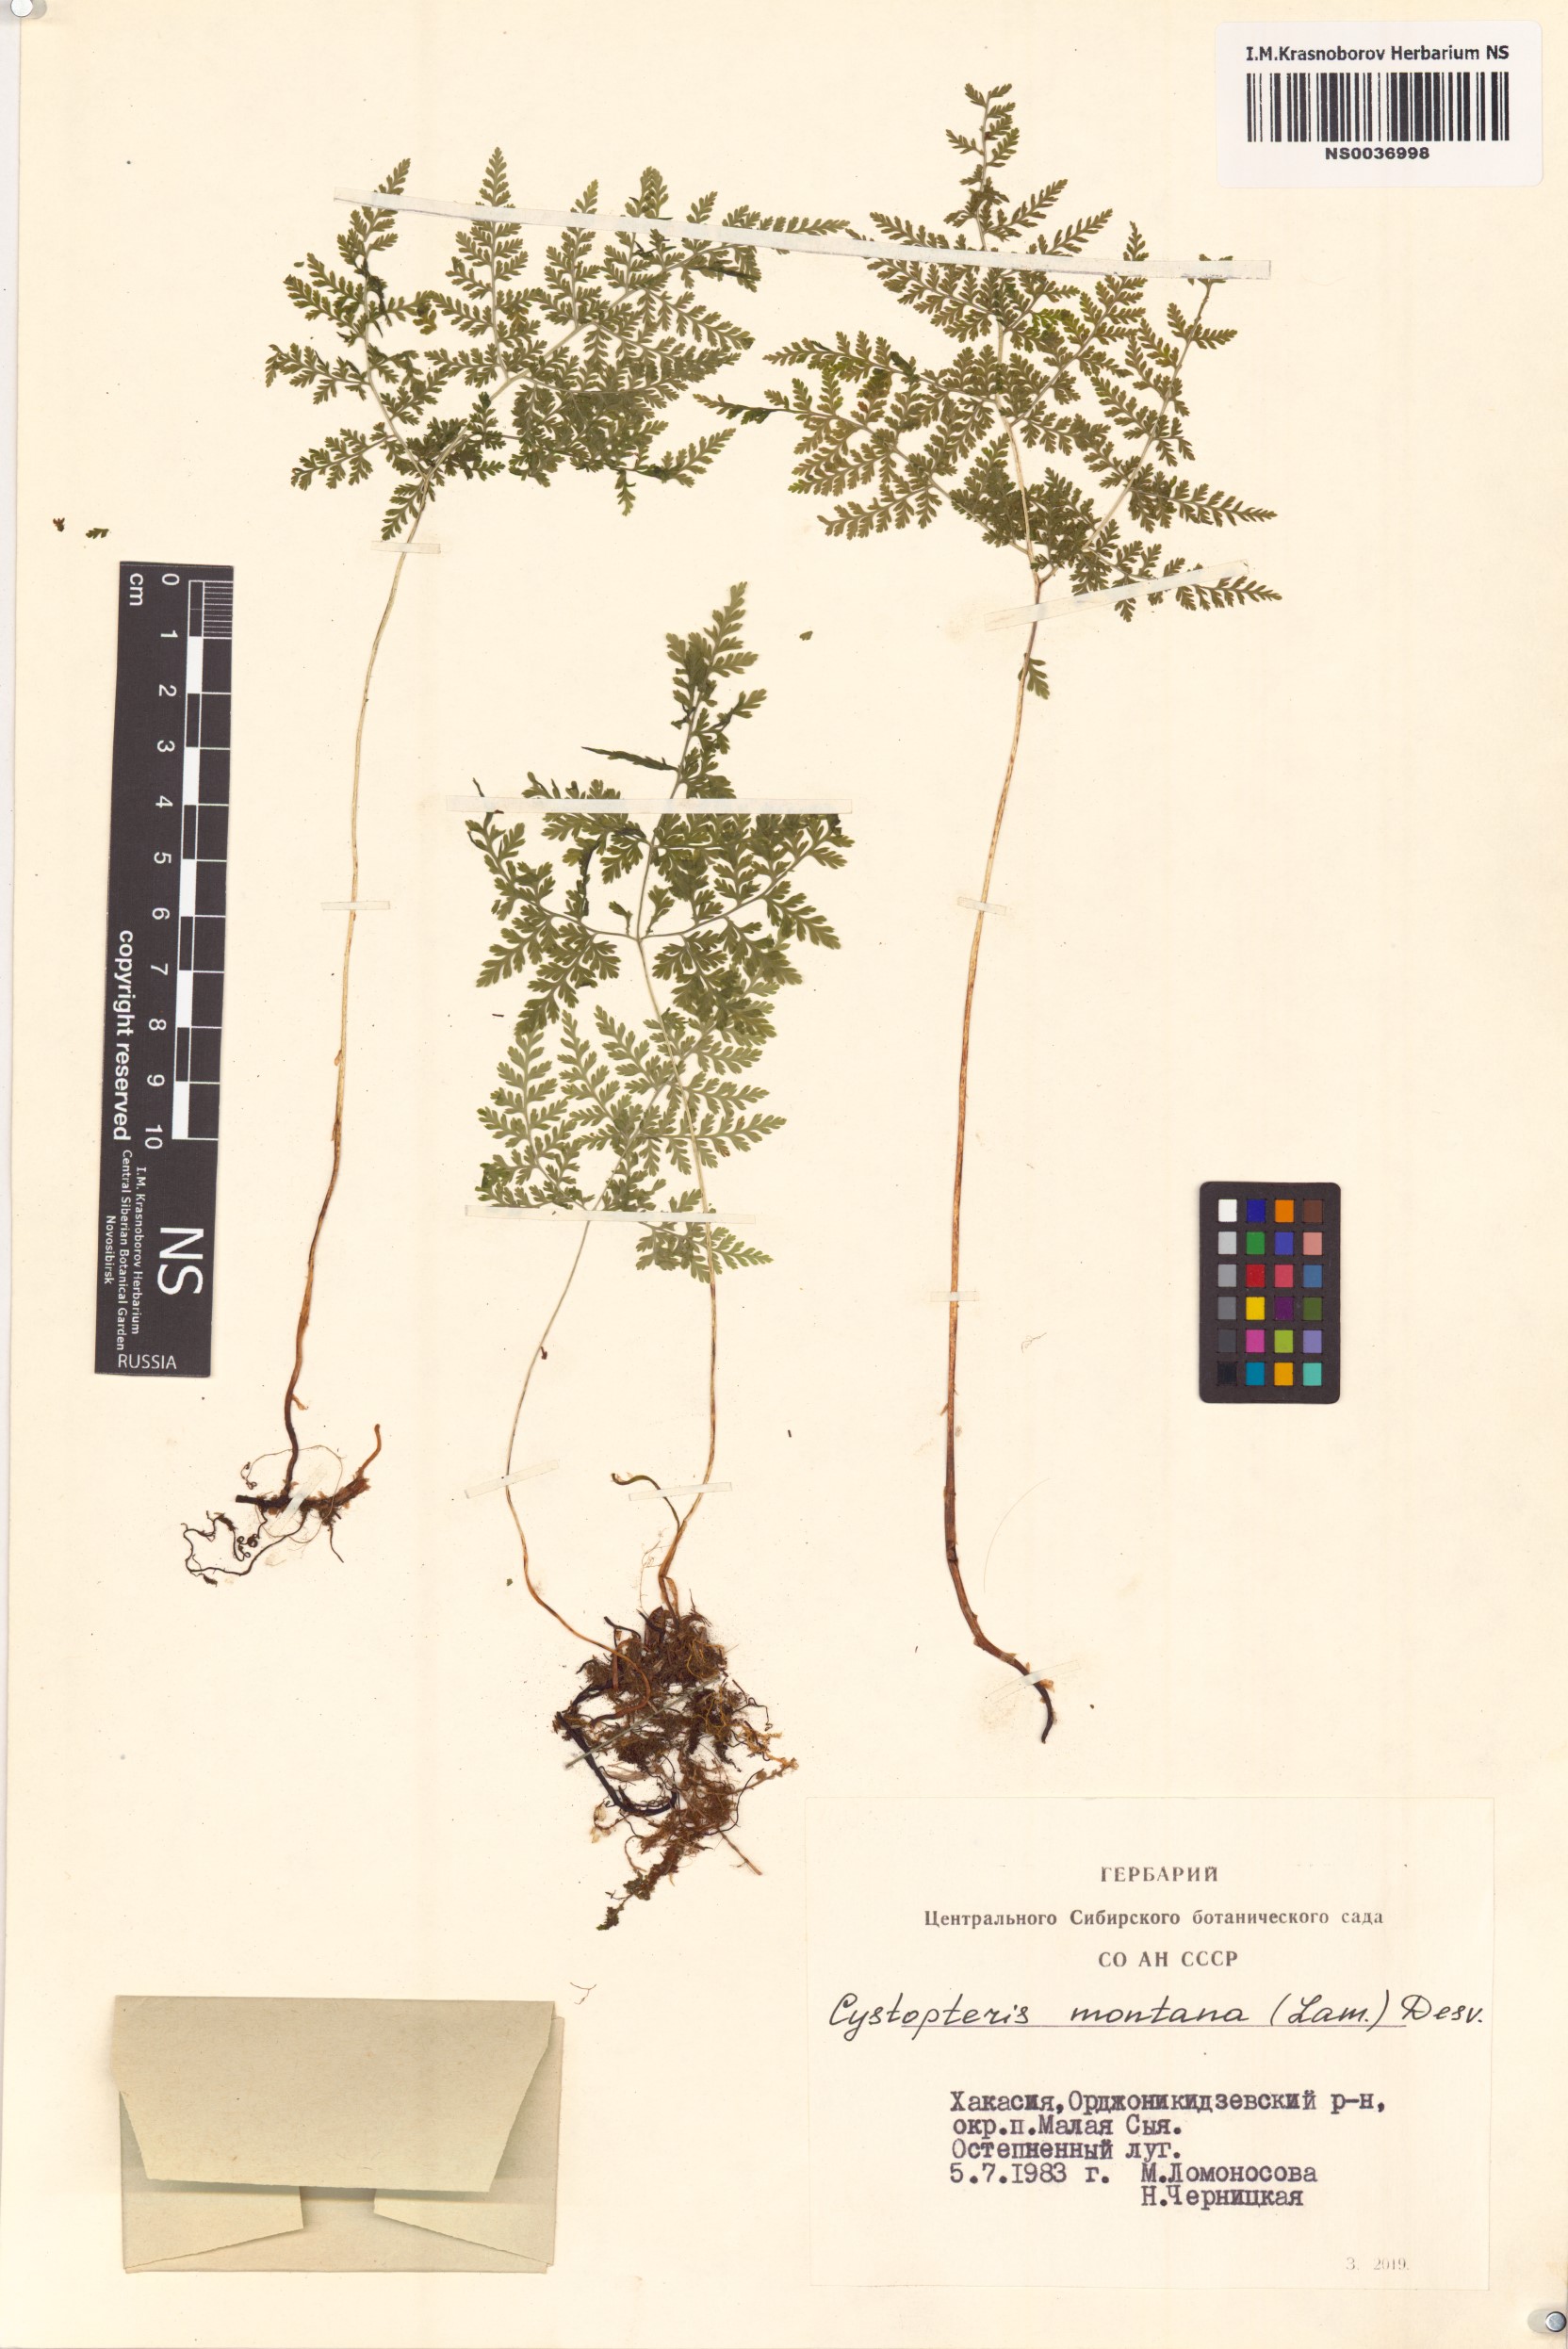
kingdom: Plantae
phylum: Tracheophyta
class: Polypodiopsida
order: Polypodiales
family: Cystopteridaceae
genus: Cystopteris
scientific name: Cystopteris montana
